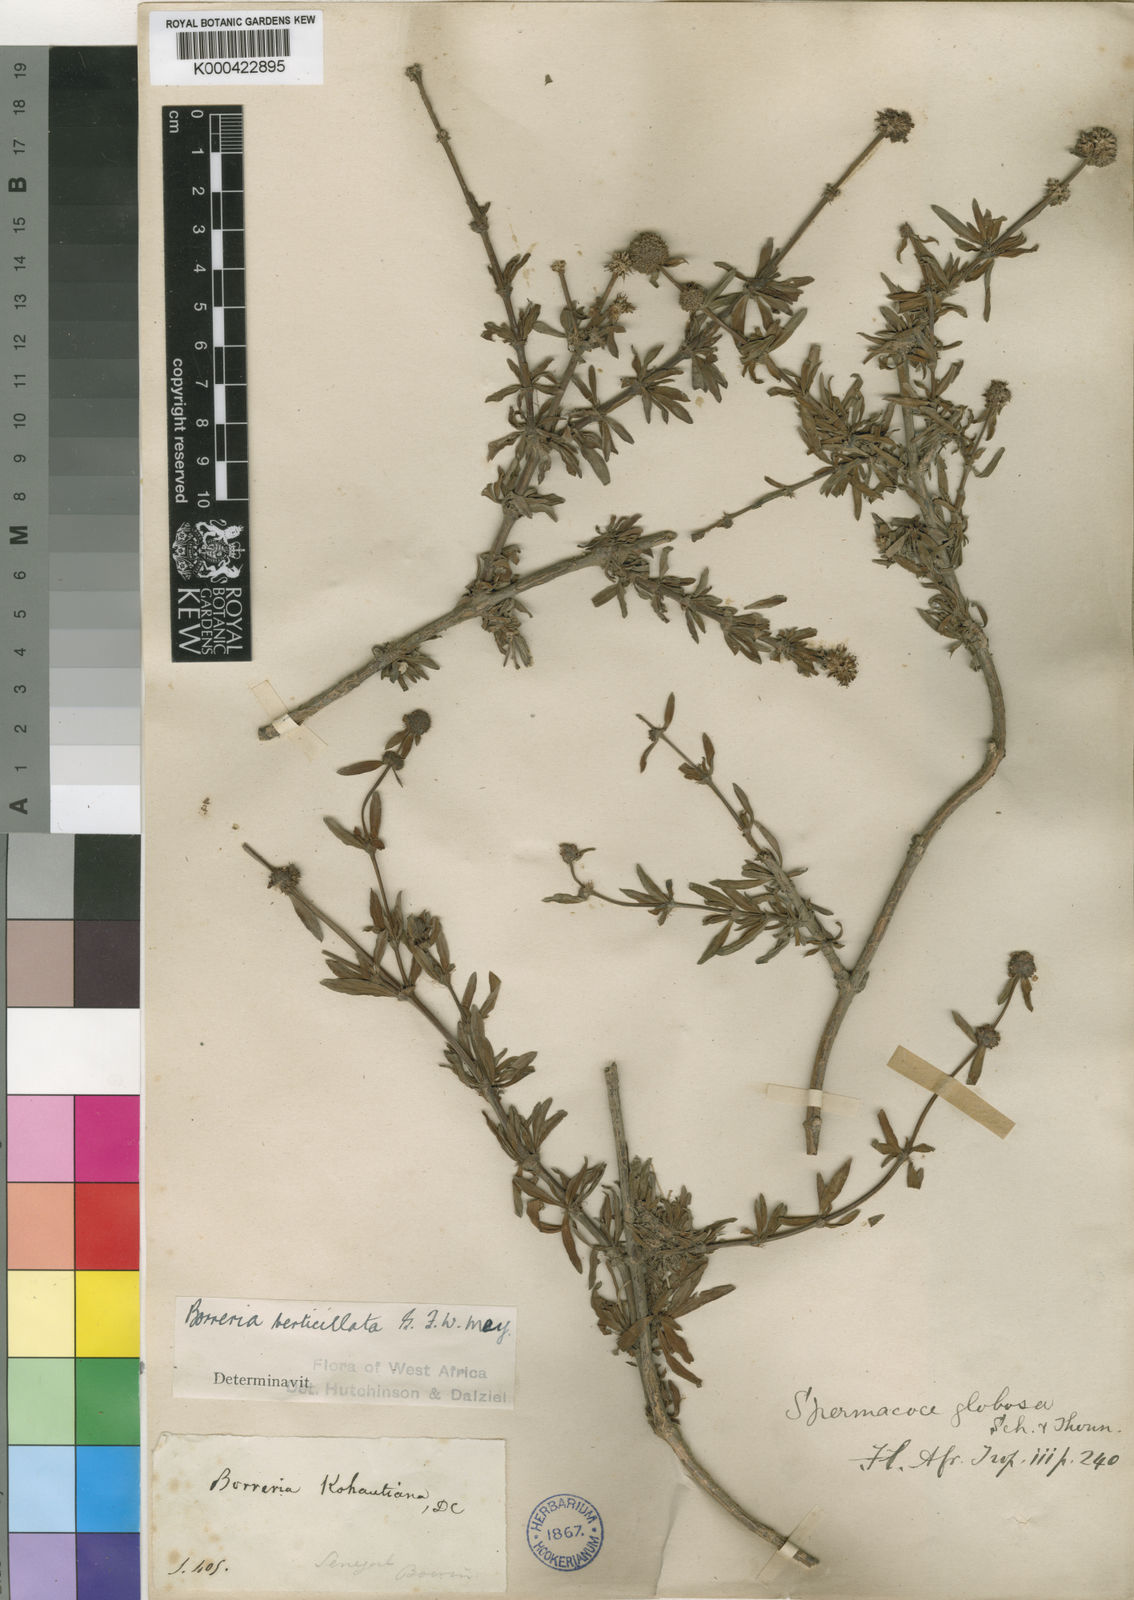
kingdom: Plantae
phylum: Tracheophyta
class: Magnoliopsida
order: Gentianales
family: Rubiaceae
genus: Spermacoce
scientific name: Spermacoce verticillata
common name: Shrubby false buttonweed
